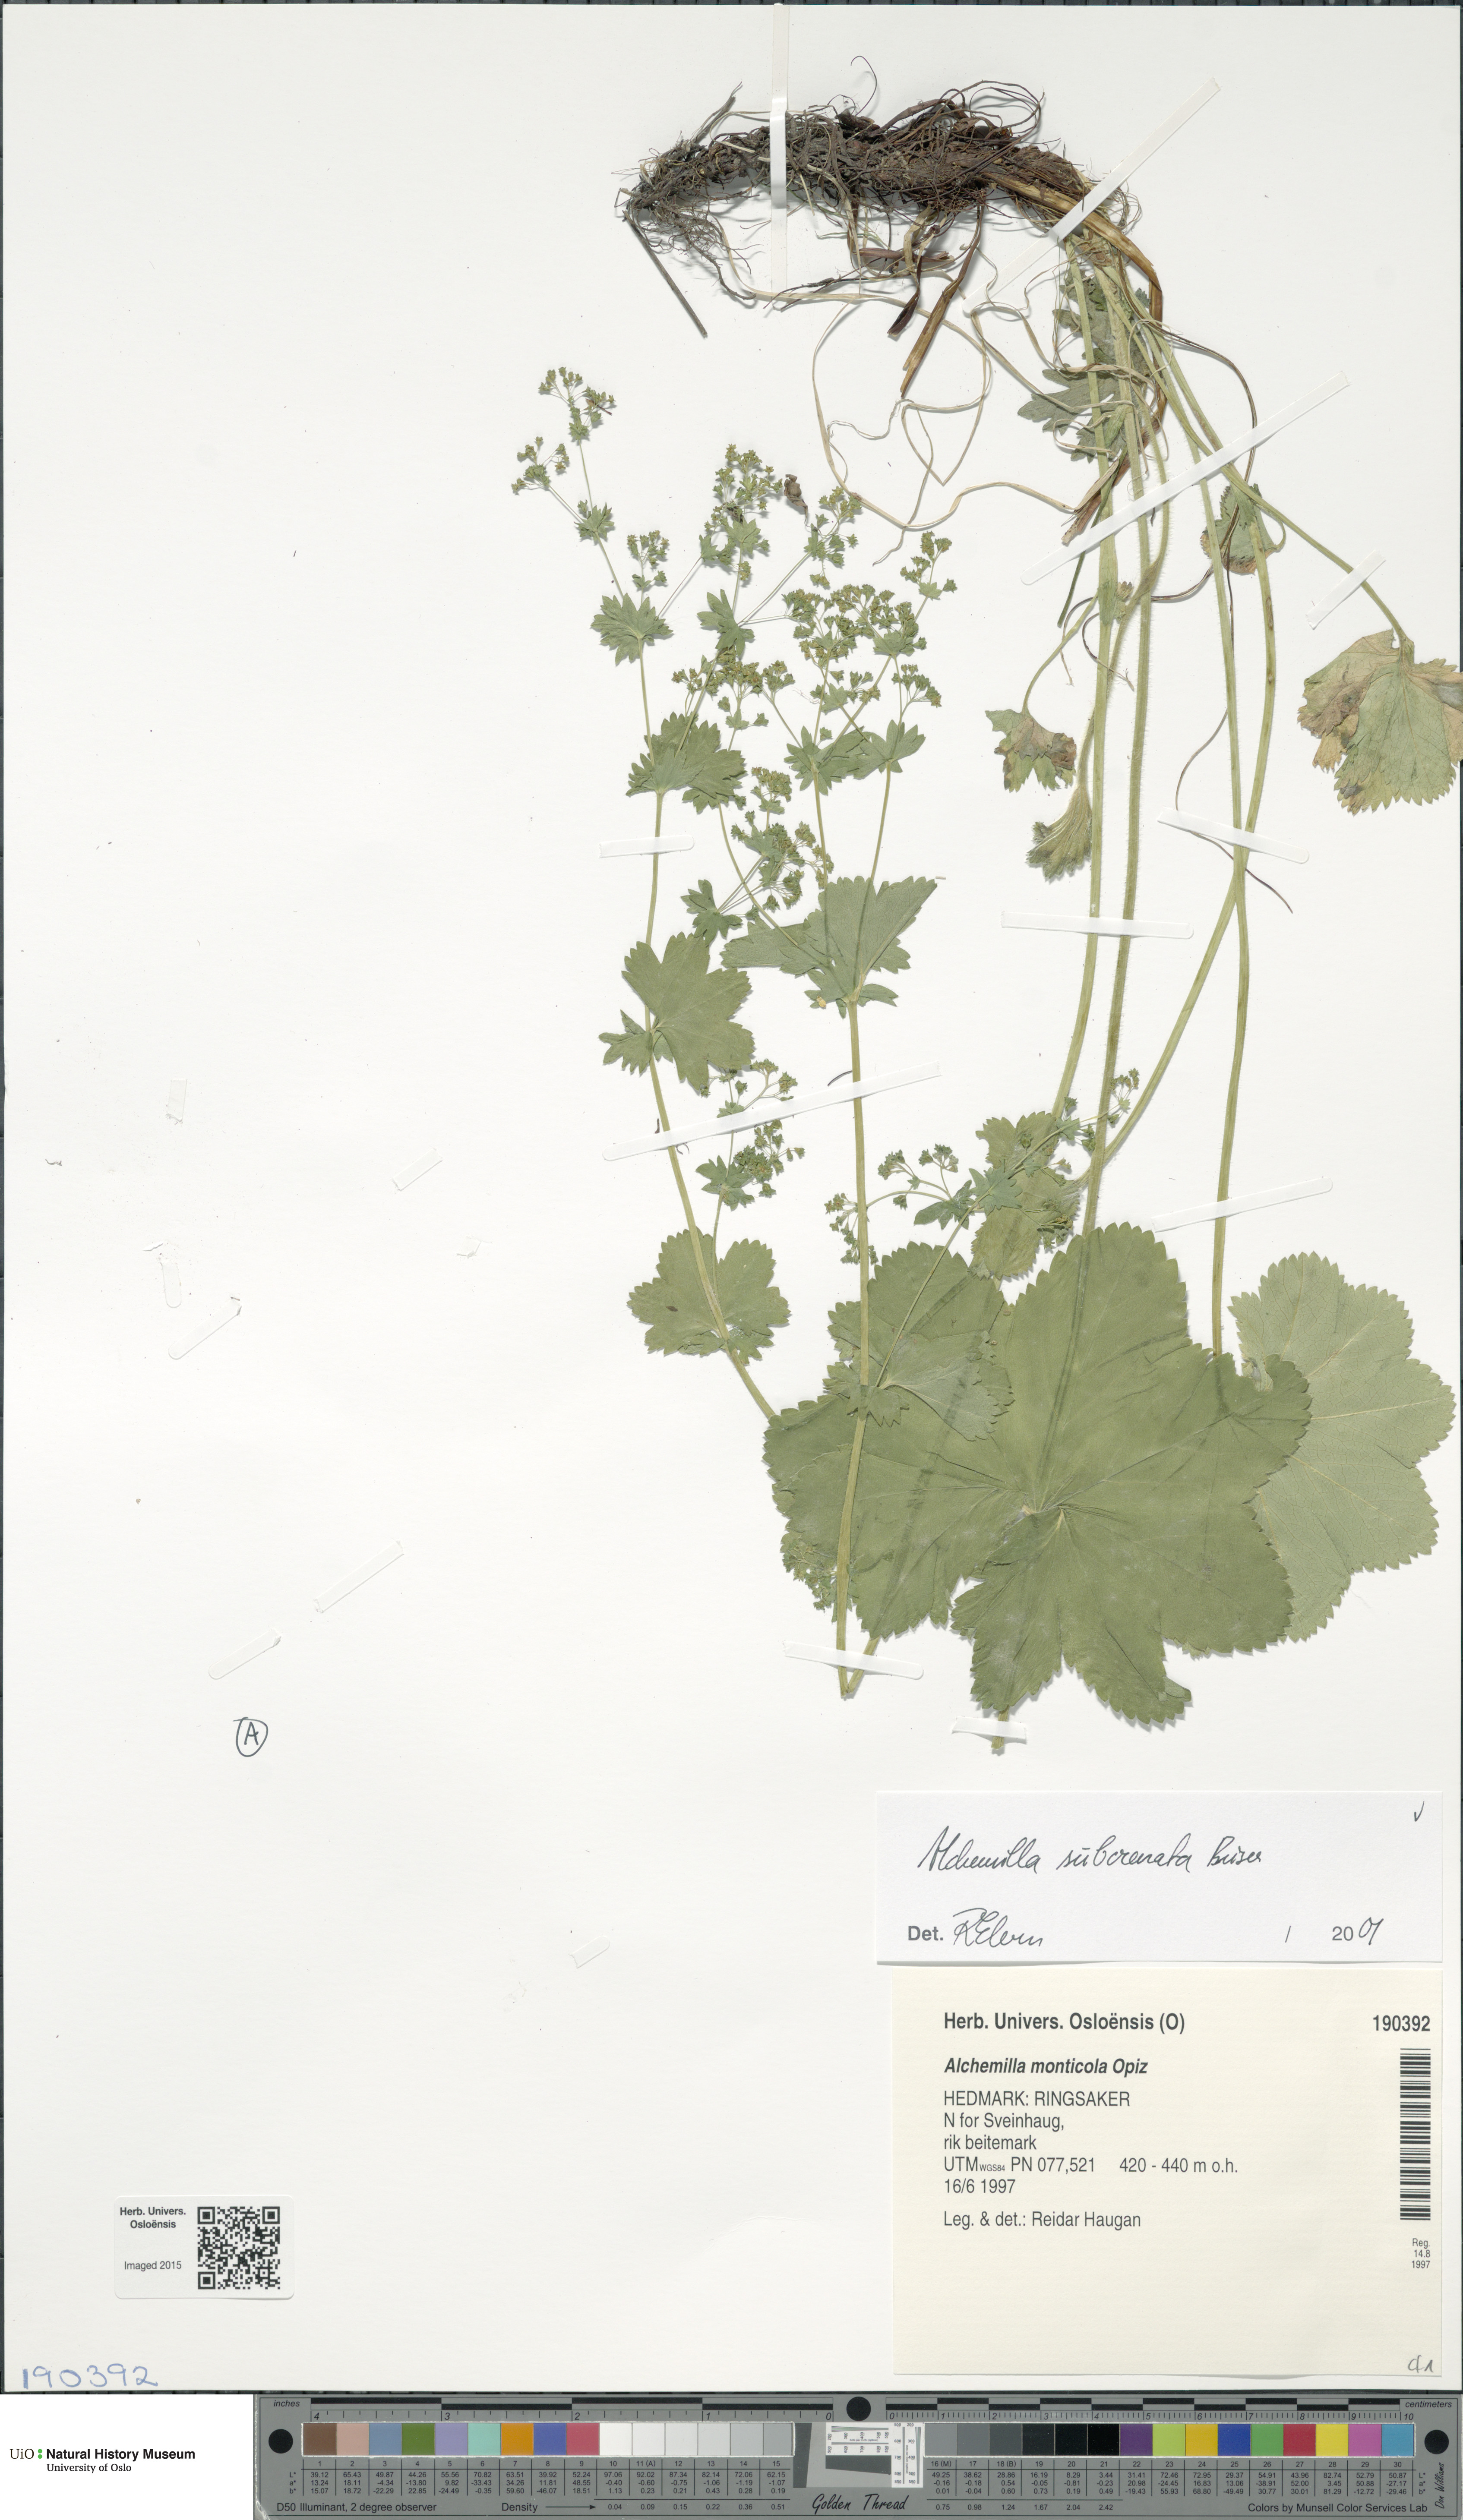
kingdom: Plantae
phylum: Tracheophyta
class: Magnoliopsida
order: Rosales
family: Rosaceae
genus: Alchemilla
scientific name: Alchemilla subcrenata
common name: Broadtooth lady's mantle
